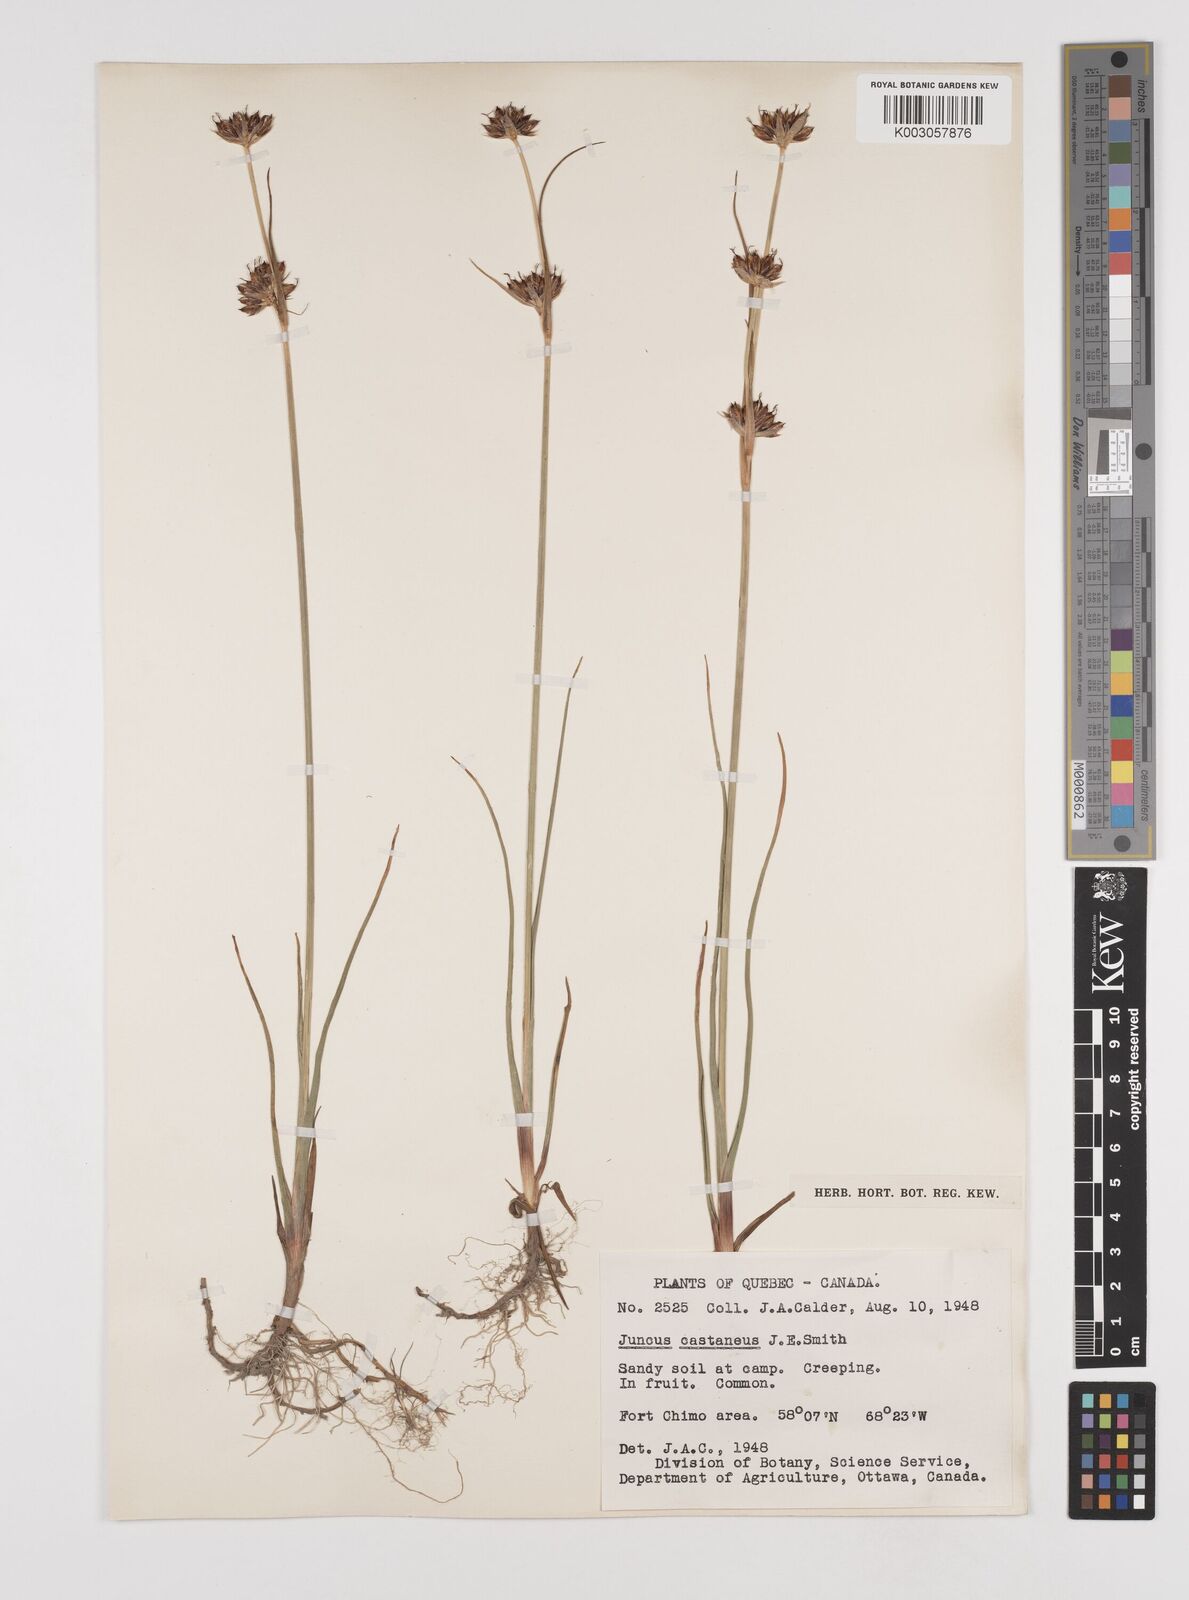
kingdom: Plantae
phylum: Tracheophyta
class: Liliopsida
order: Poales
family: Juncaceae
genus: Juncus
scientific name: Juncus castaneus
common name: Chestnut rush
